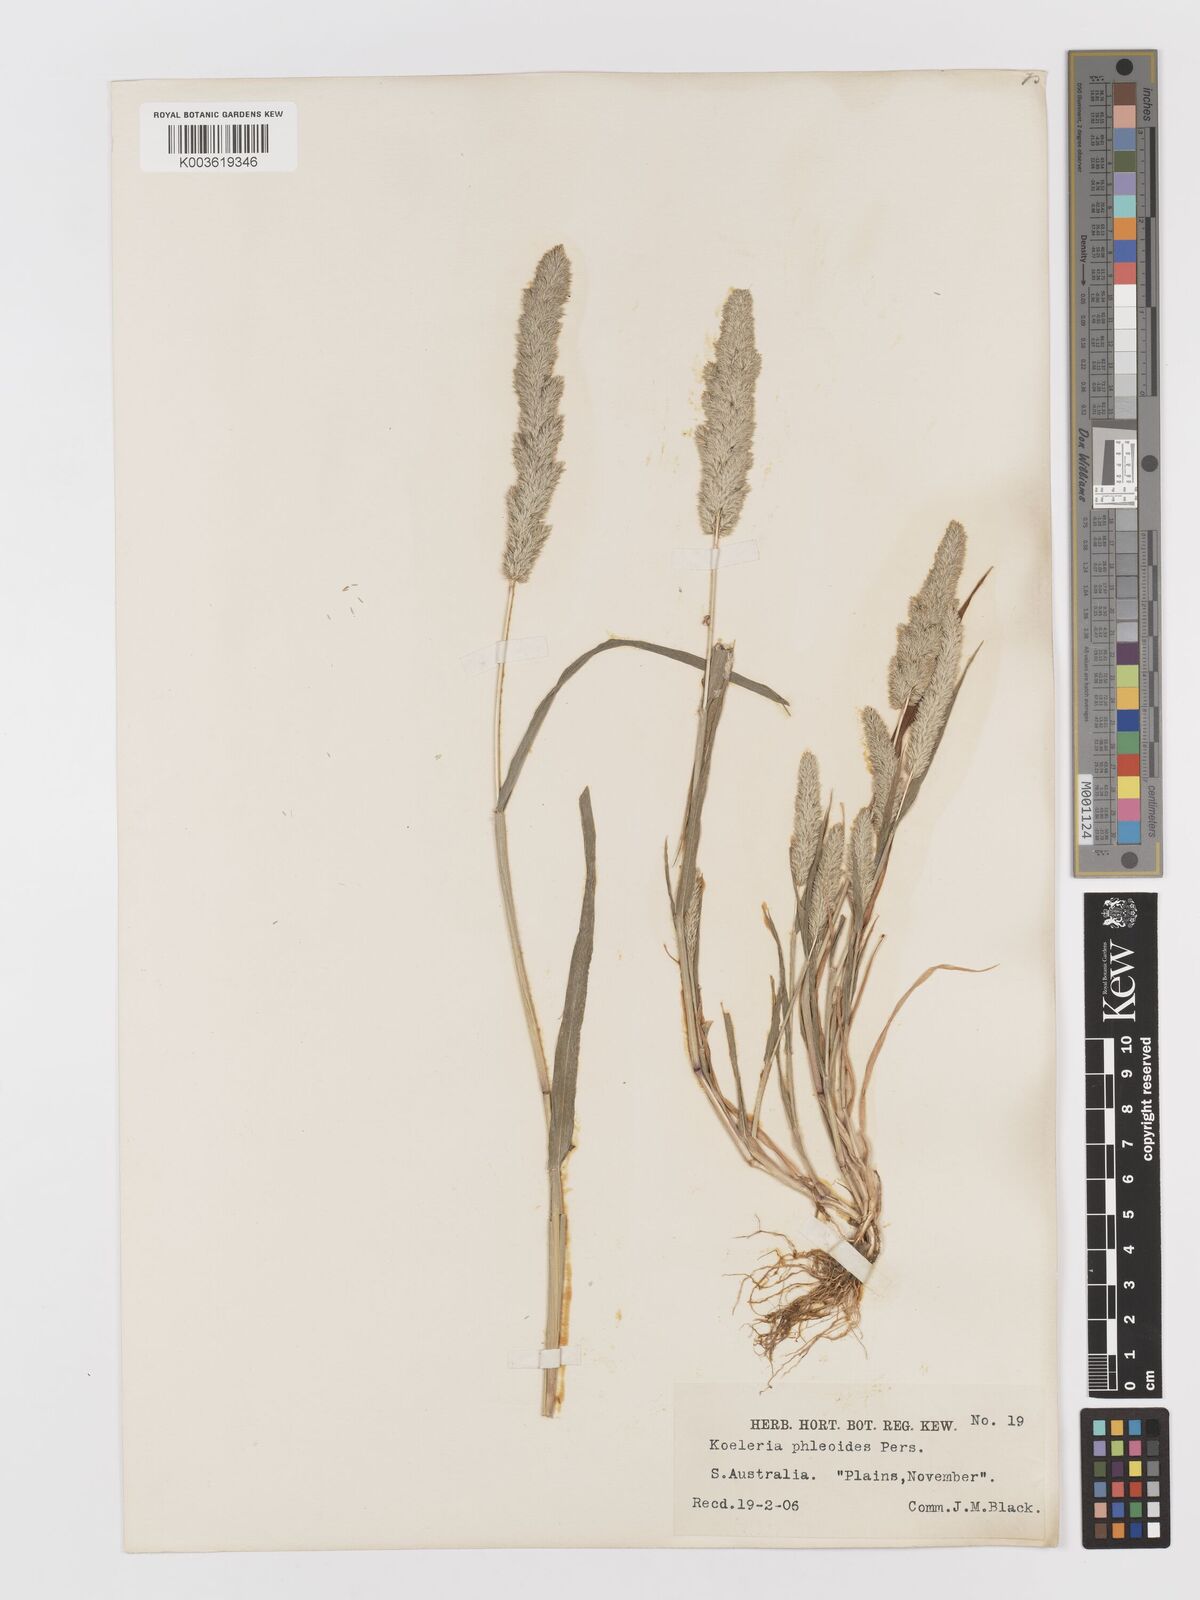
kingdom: Plantae
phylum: Tracheophyta
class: Liliopsida
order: Poales
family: Poaceae
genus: Rostraria
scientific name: Rostraria cristata
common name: Mediterranean hair-grass
